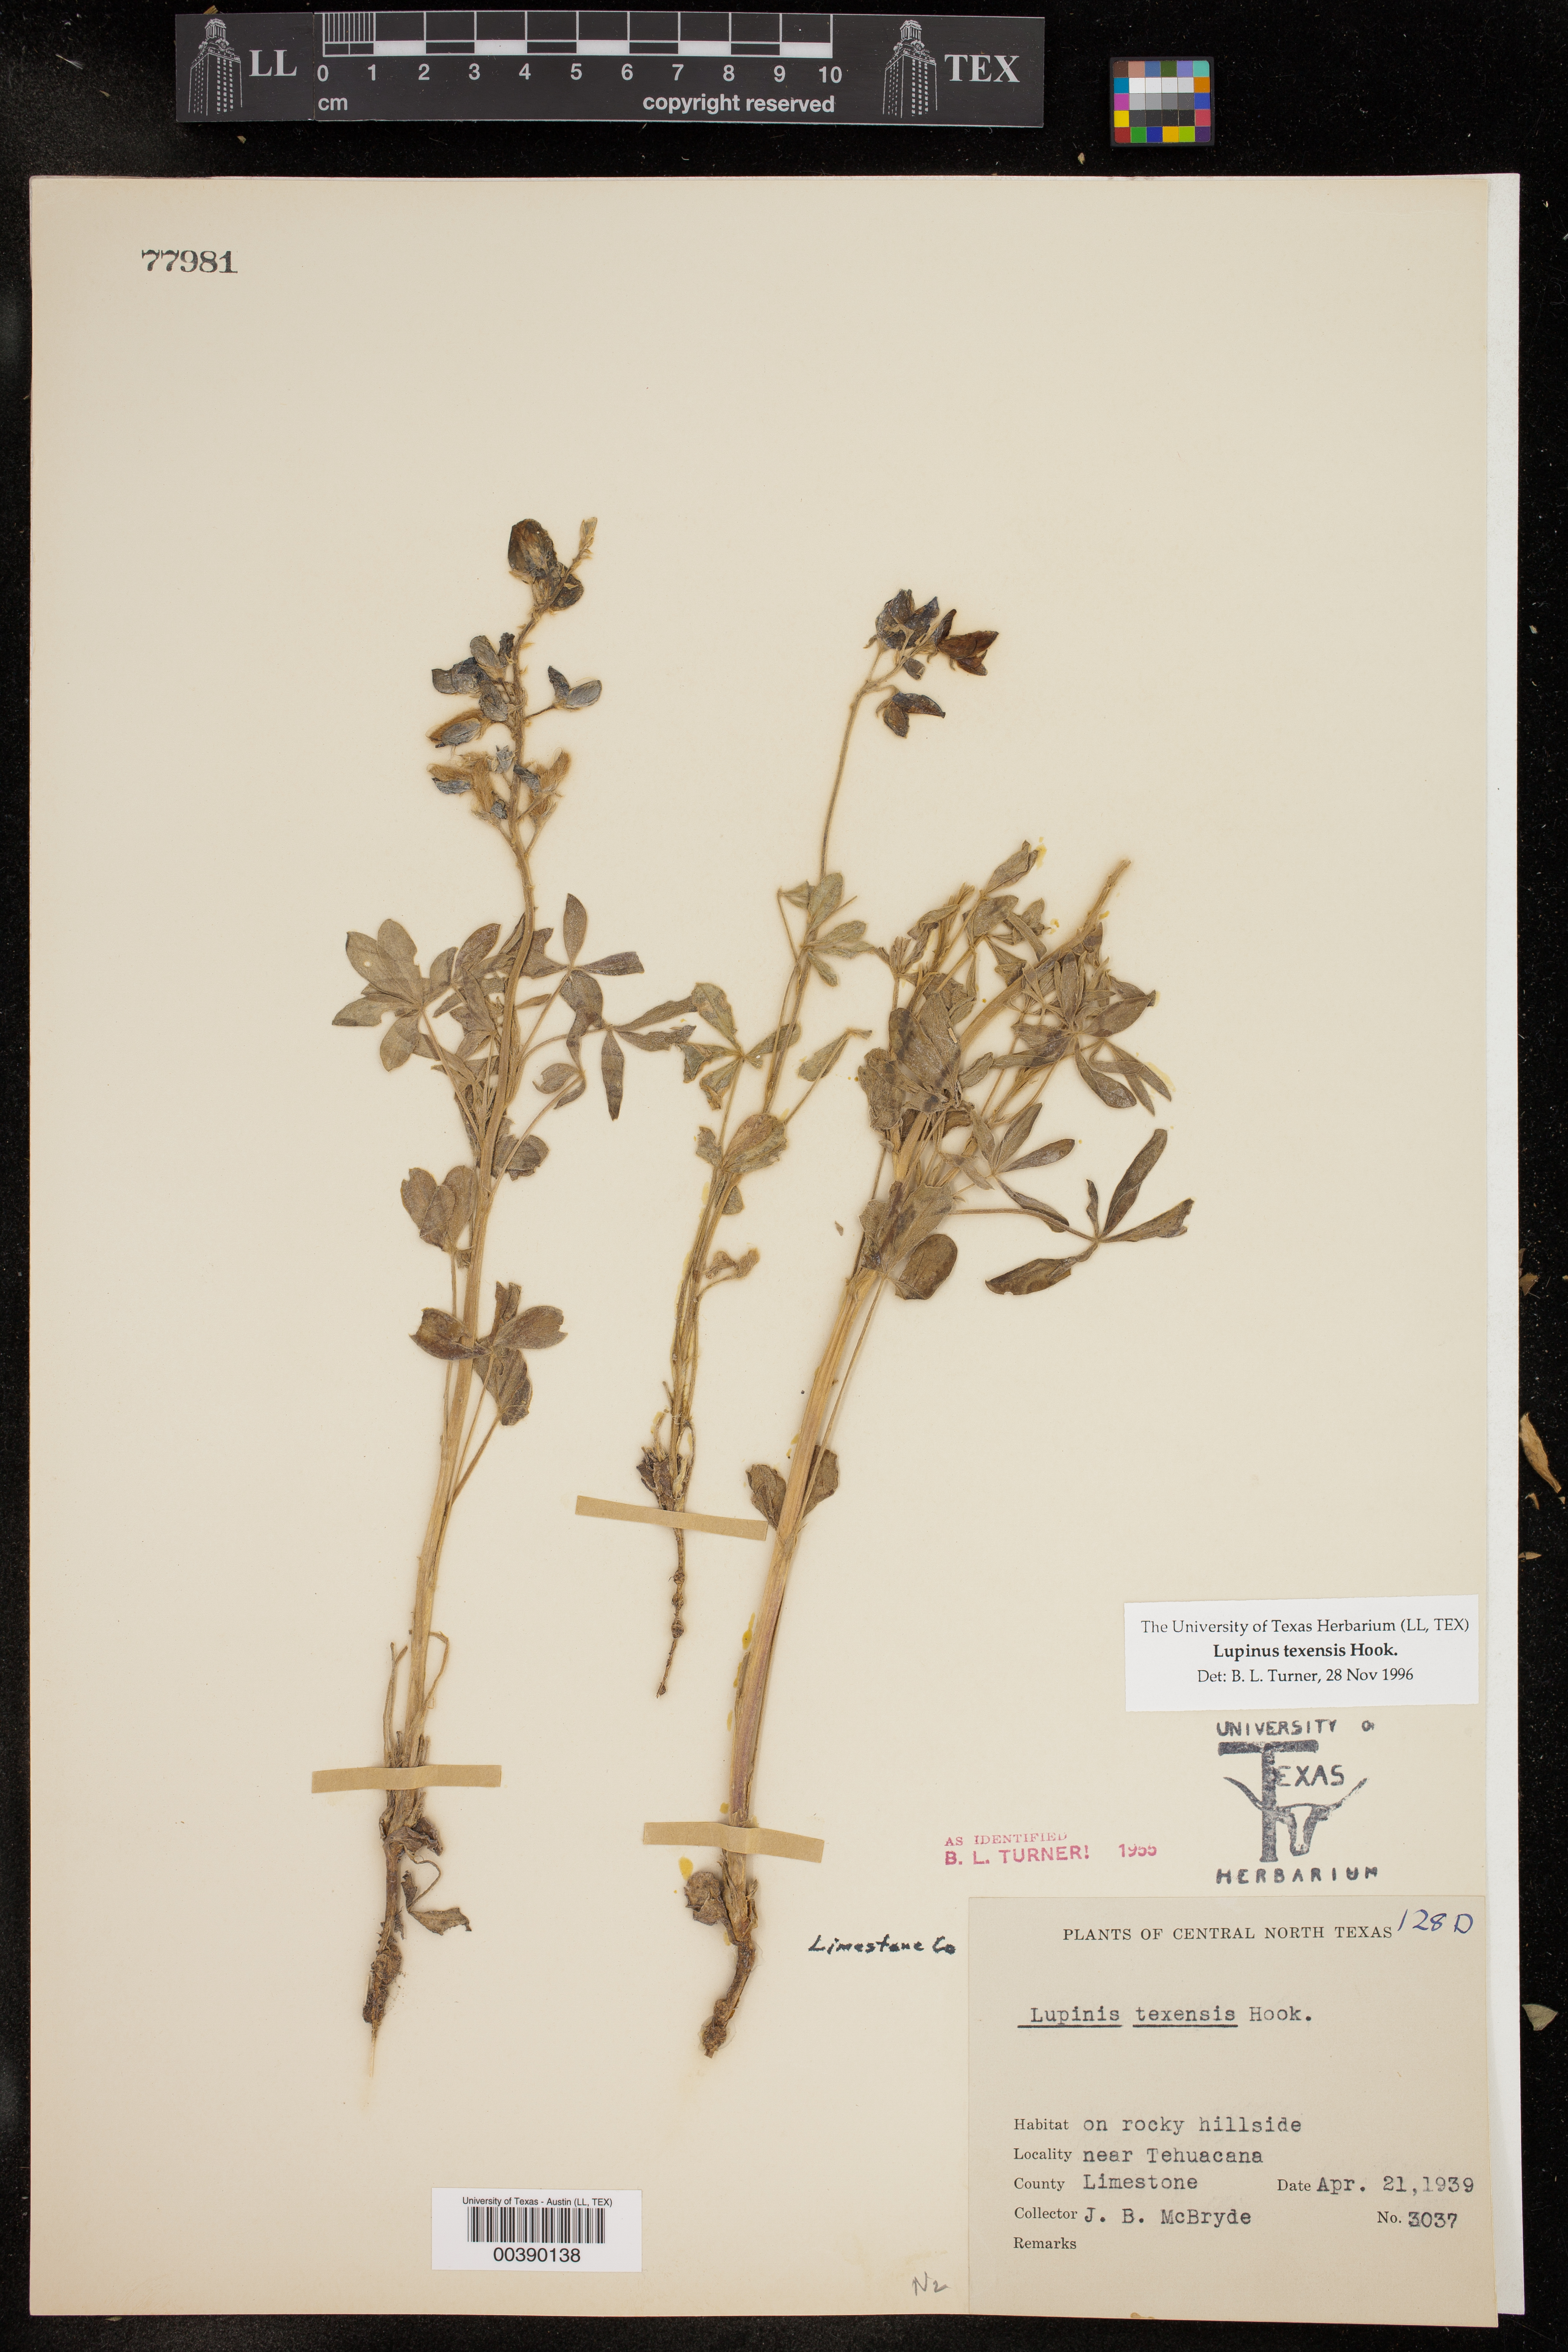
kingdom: Plantae
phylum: Tracheophyta
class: Magnoliopsida
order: Fabales
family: Fabaceae
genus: Lupinus
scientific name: Lupinus texensis
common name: Texas bluebonnet
